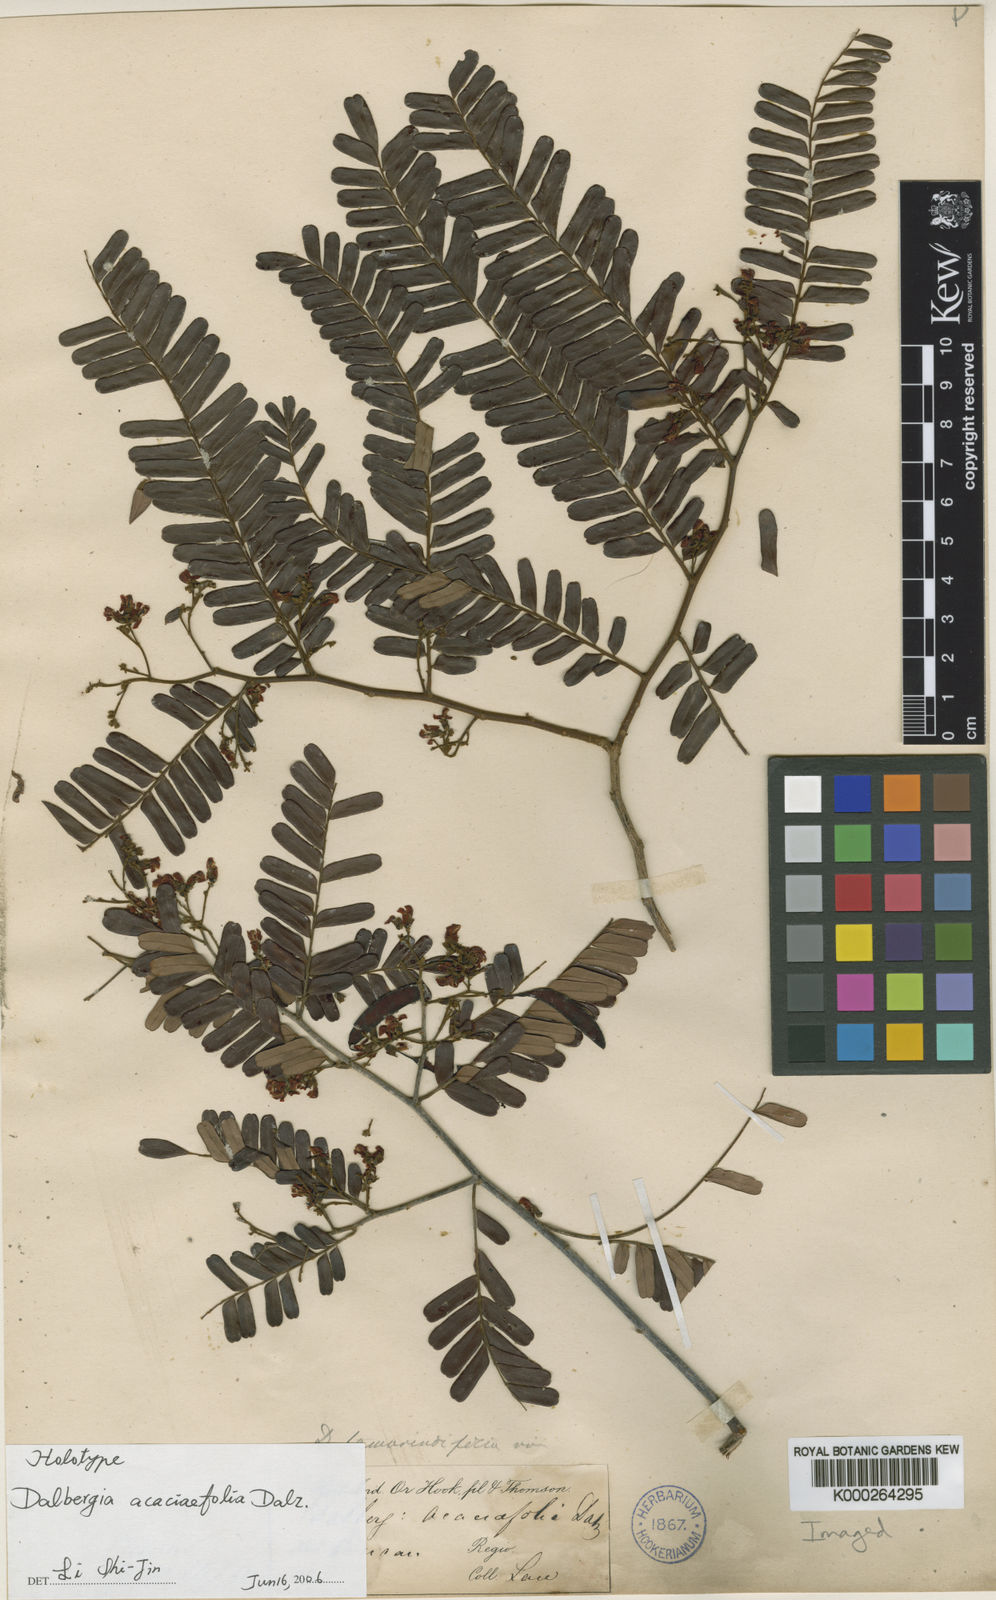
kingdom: Plantae
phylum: Tracheophyta
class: Magnoliopsida
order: Fabales
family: Fabaceae
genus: Dalbergia
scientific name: Dalbergia
